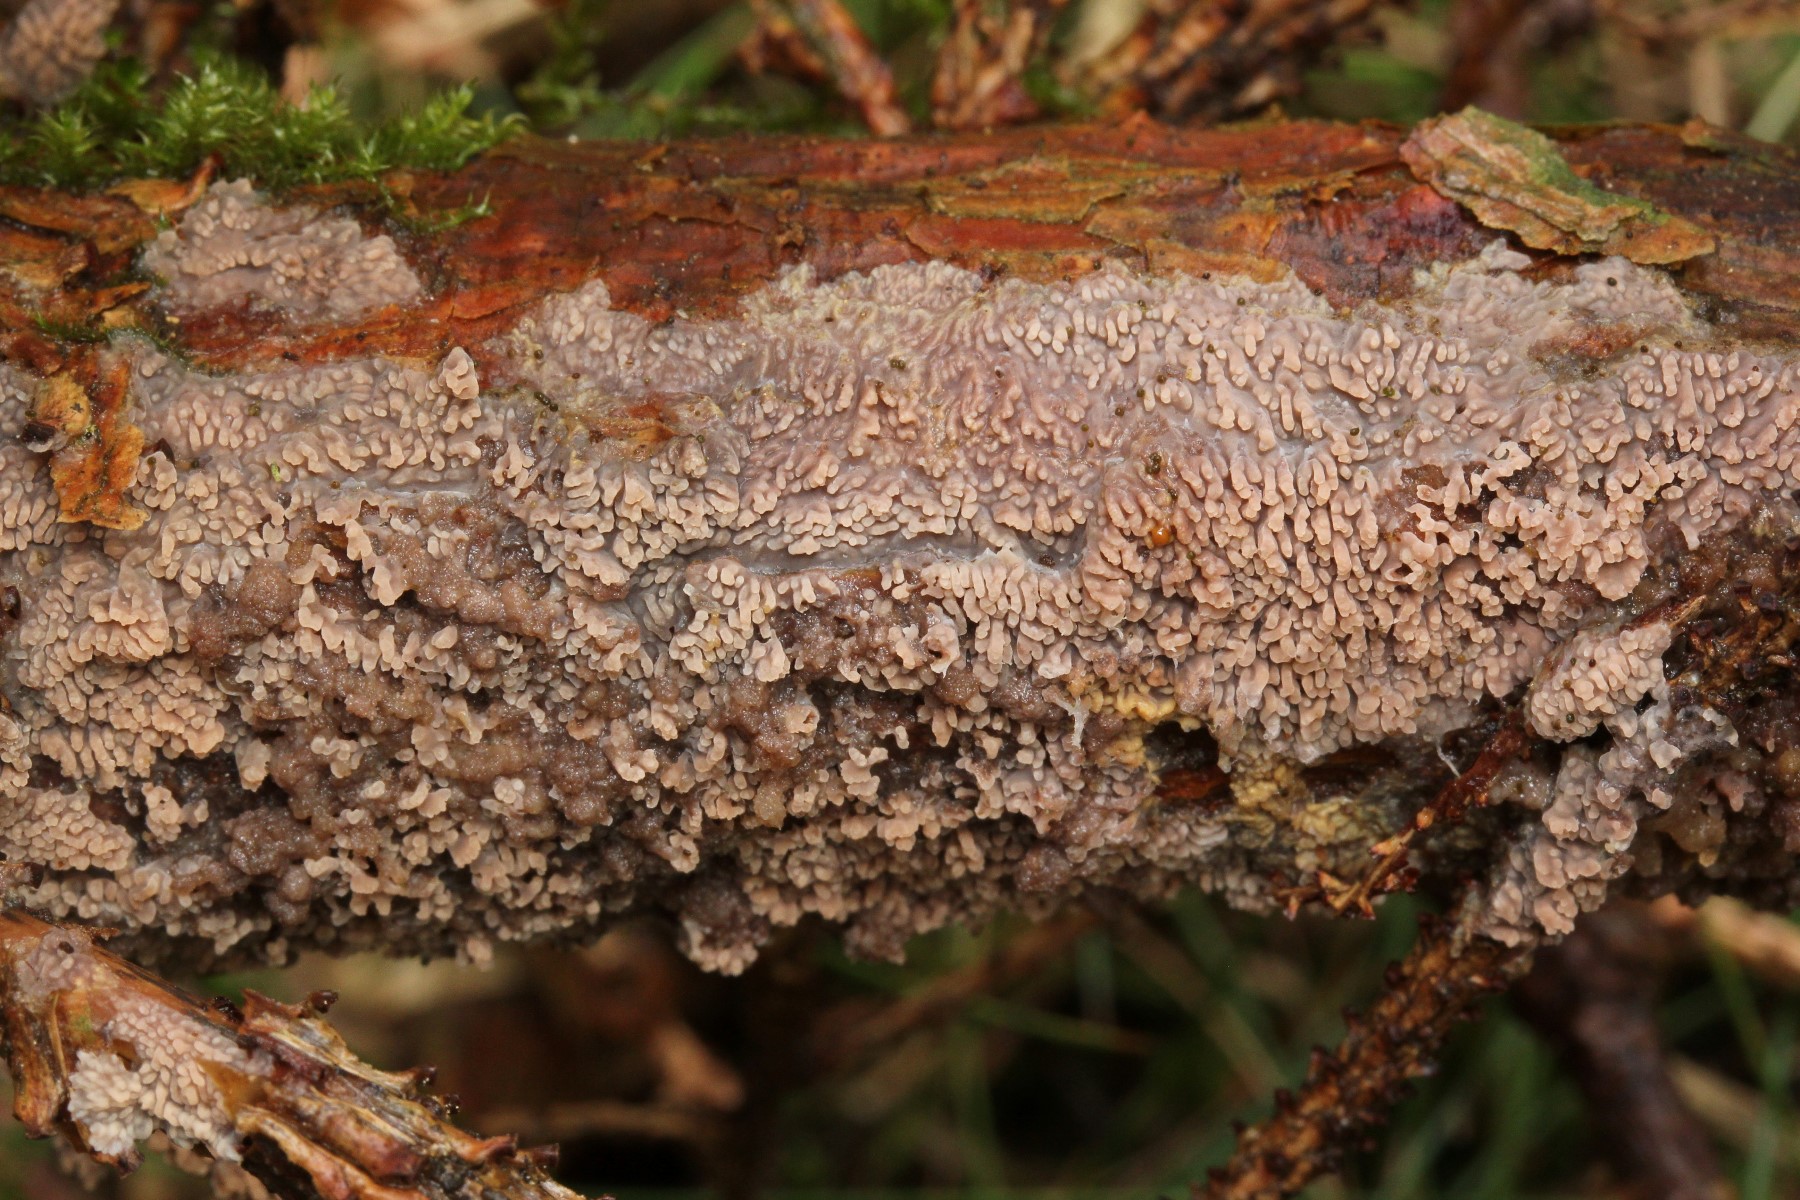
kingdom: Fungi
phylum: Basidiomycota
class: Agaricomycetes
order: Polyporales
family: Meruliaceae
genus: Phlebia
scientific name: Phlebia
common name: åresvamp
